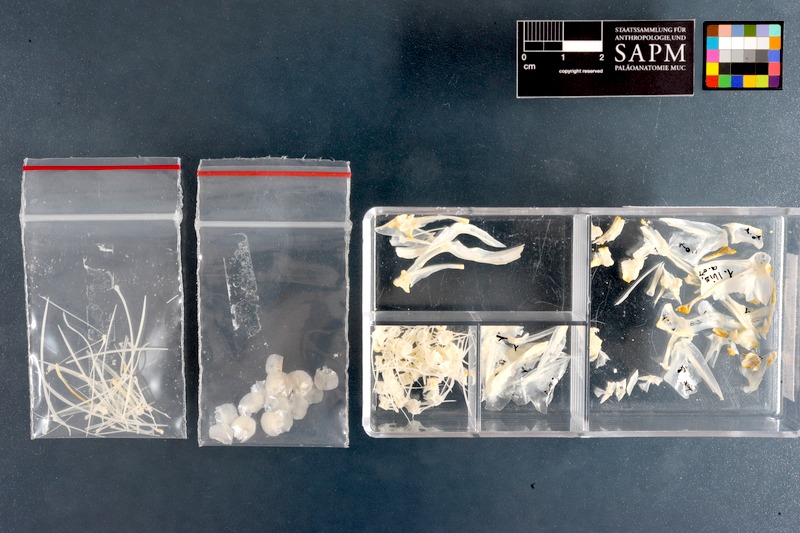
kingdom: Animalia
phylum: Chordata
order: Clupeiformes
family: Pristigasteridae
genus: Ilisha
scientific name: Ilisha africana
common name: African ilisha
